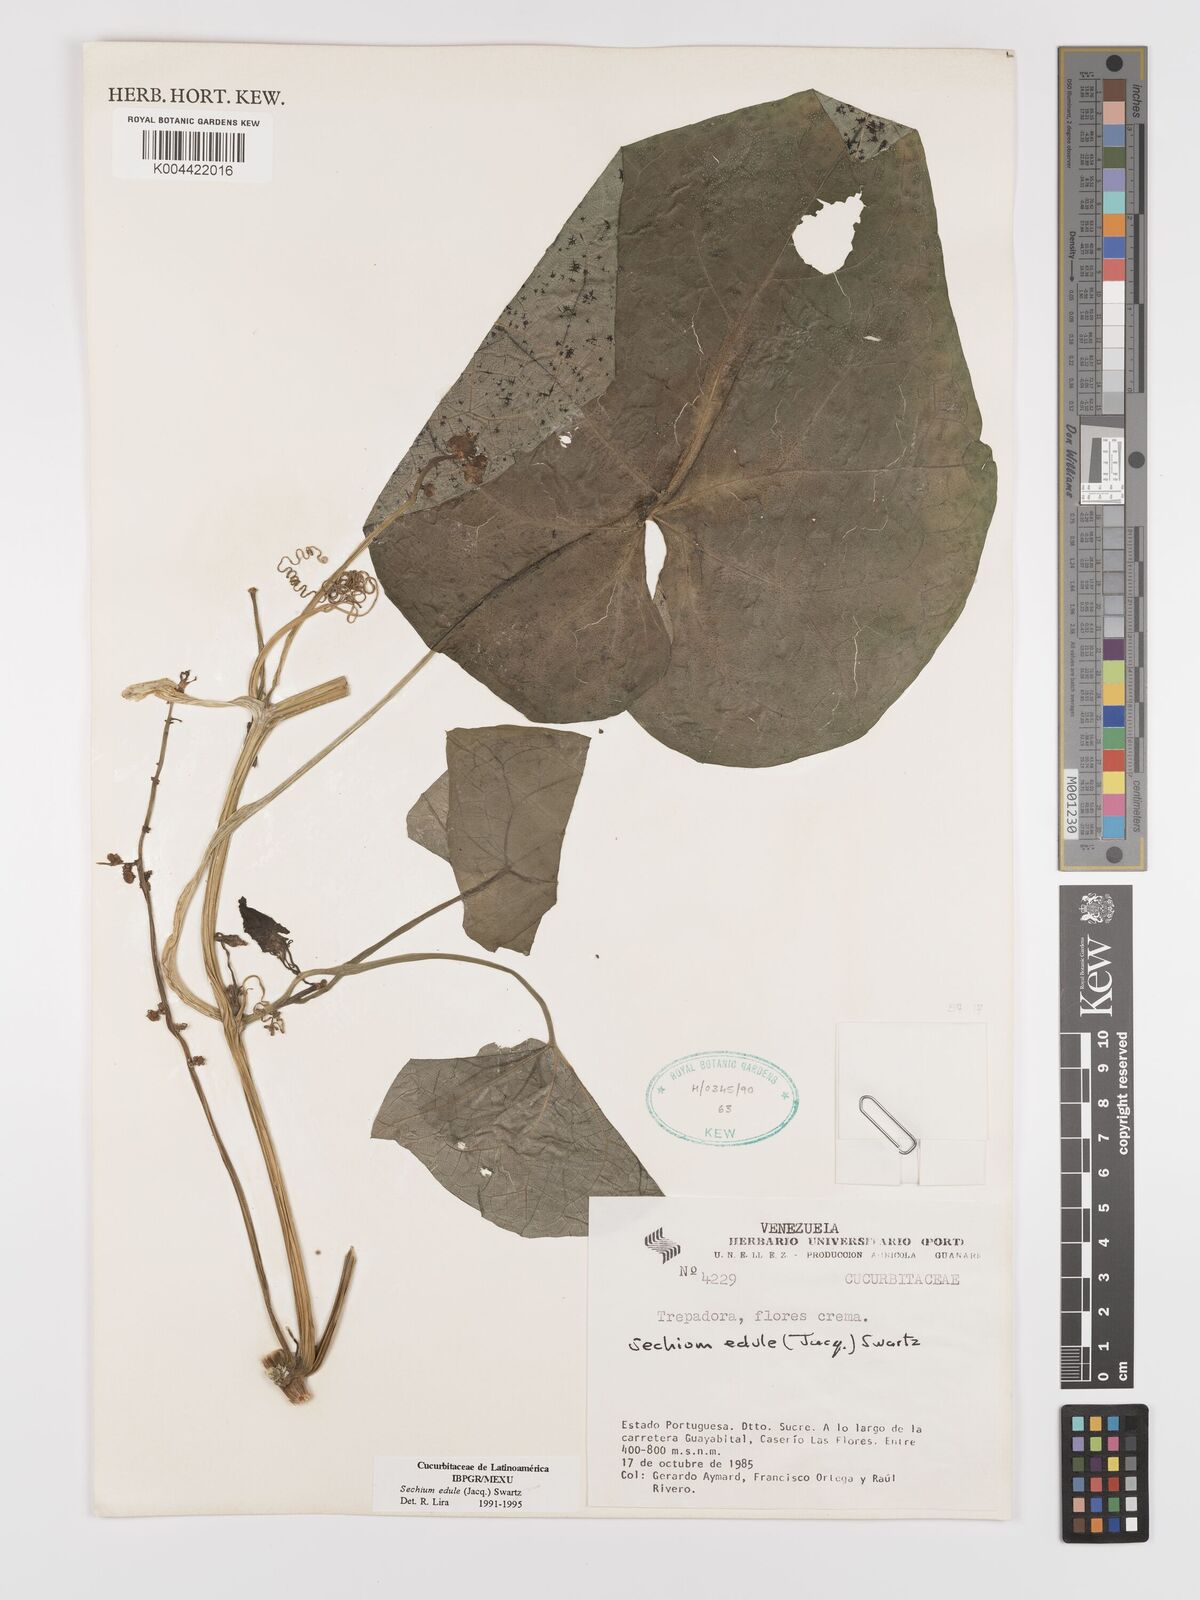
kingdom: Plantae
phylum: Tracheophyta
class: Magnoliopsida
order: Cucurbitales
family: Cucurbitaceae
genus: Sechium
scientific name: Sechium edule
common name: Chayote
